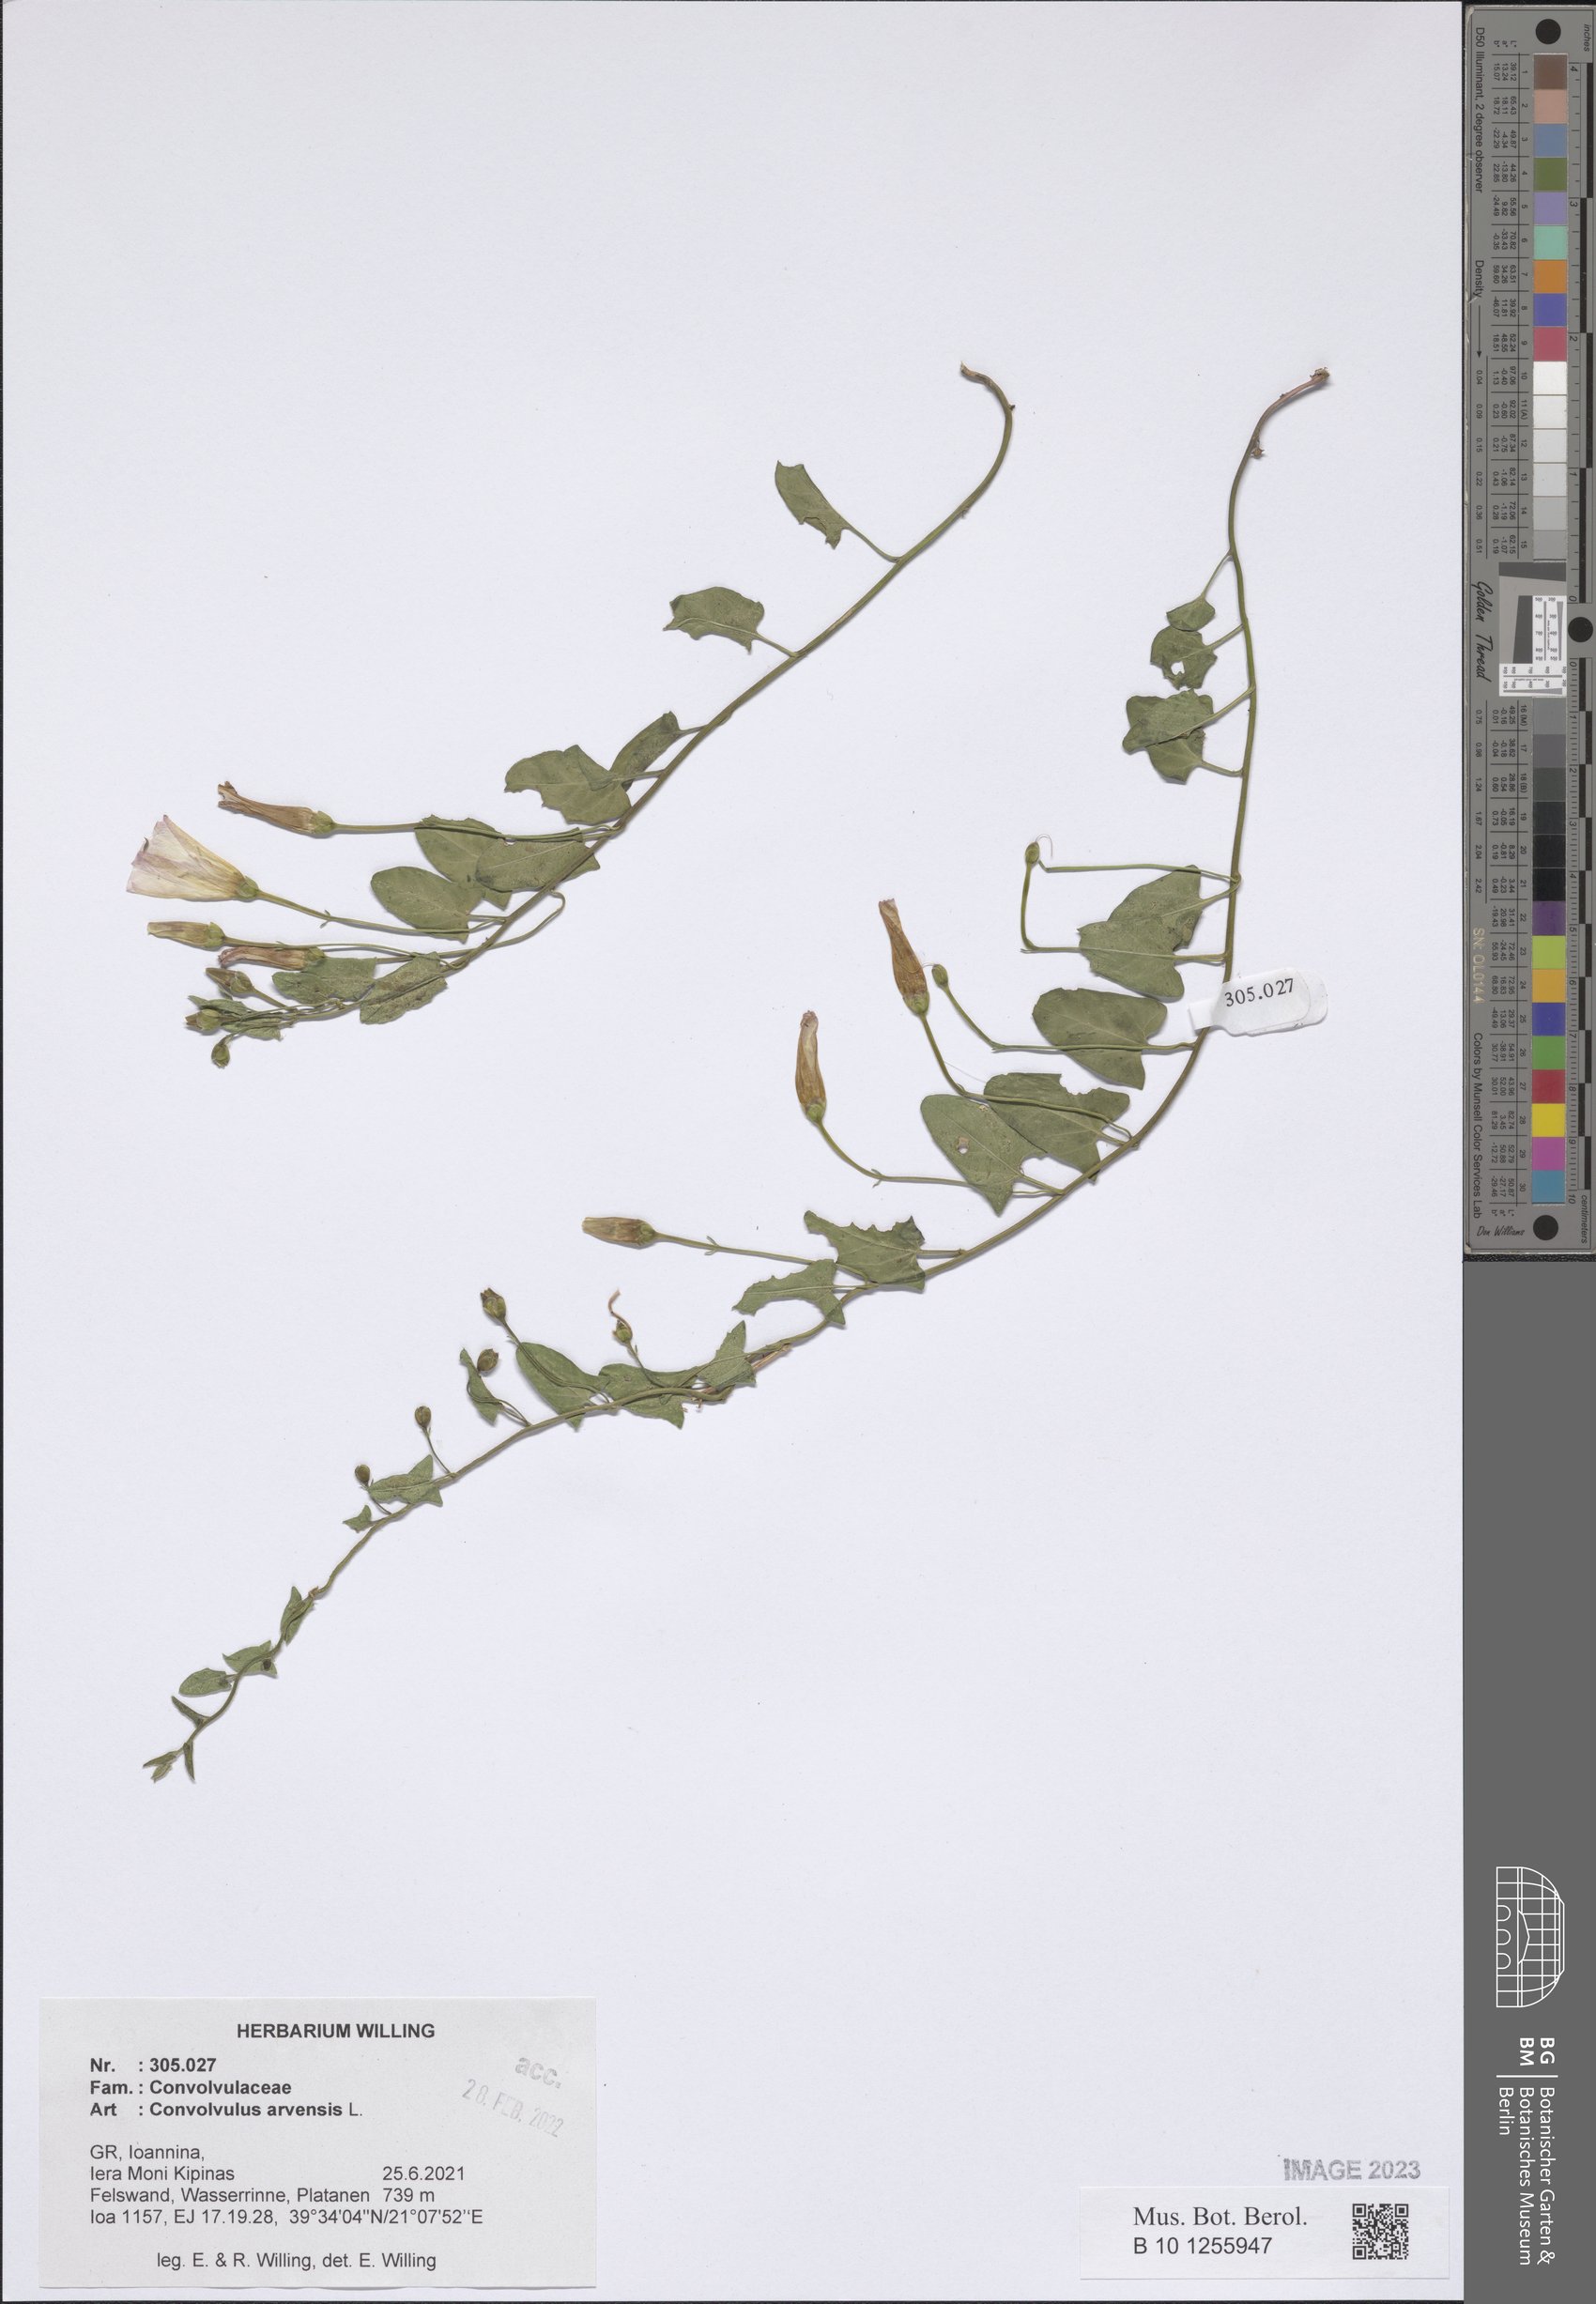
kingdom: Plantae
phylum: Tracheophyta
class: Magnoliopsida
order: Solanales
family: Convolvulaceae
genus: Convolvulus
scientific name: Convolvulus arvensis
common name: Field bindweed
